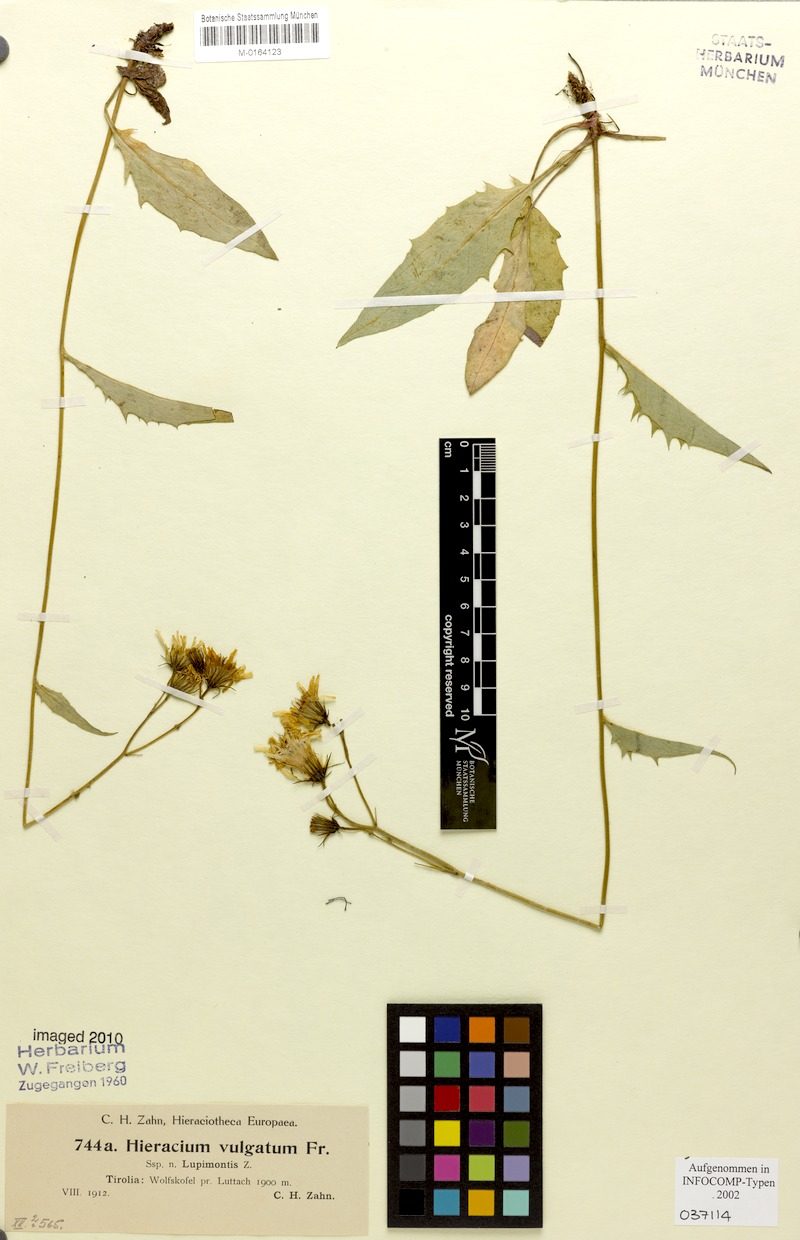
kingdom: Plantae
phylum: Tracheophyta
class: Magnoliopsida
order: Asterales
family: Asteraceae
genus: Hieracium
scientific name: Hieracium lachenalii
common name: Common hawkweed
